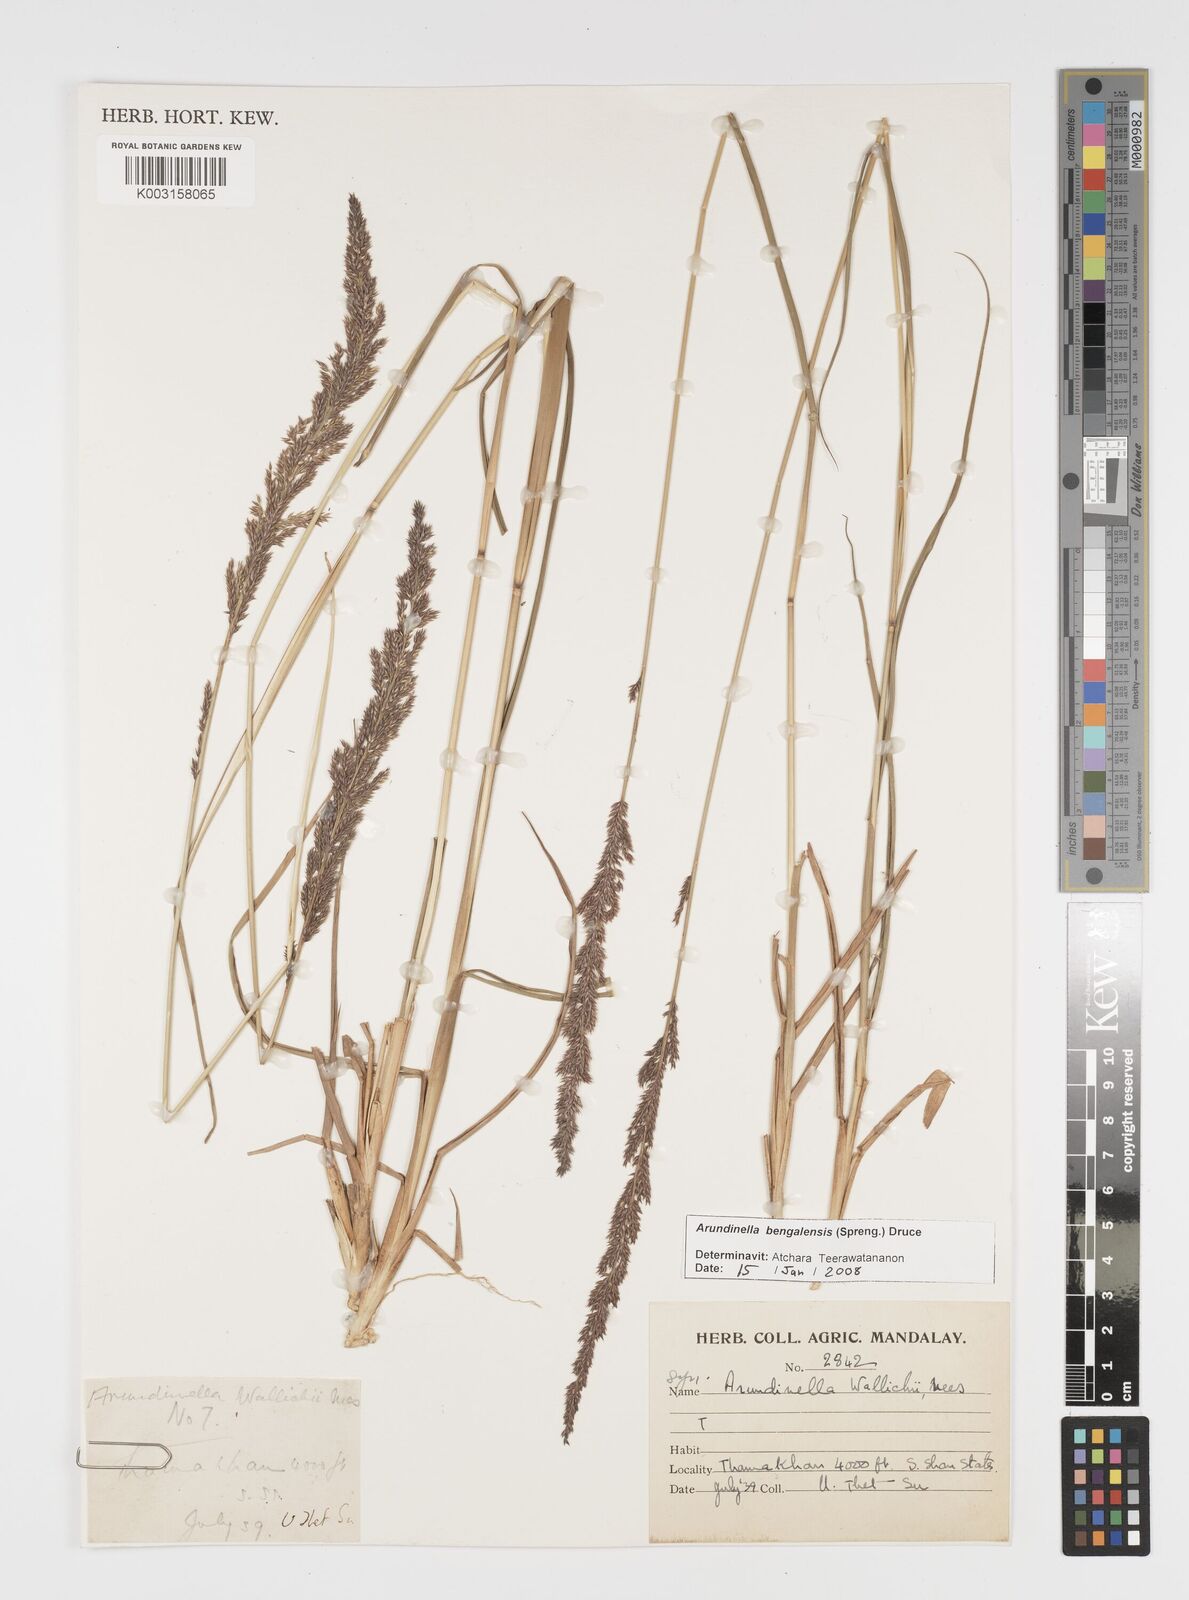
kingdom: Plantae
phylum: Tracheophyta
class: Liliopsida
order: Poales
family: Poaceae
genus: Arundinella
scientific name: Arundinella bengalensis
